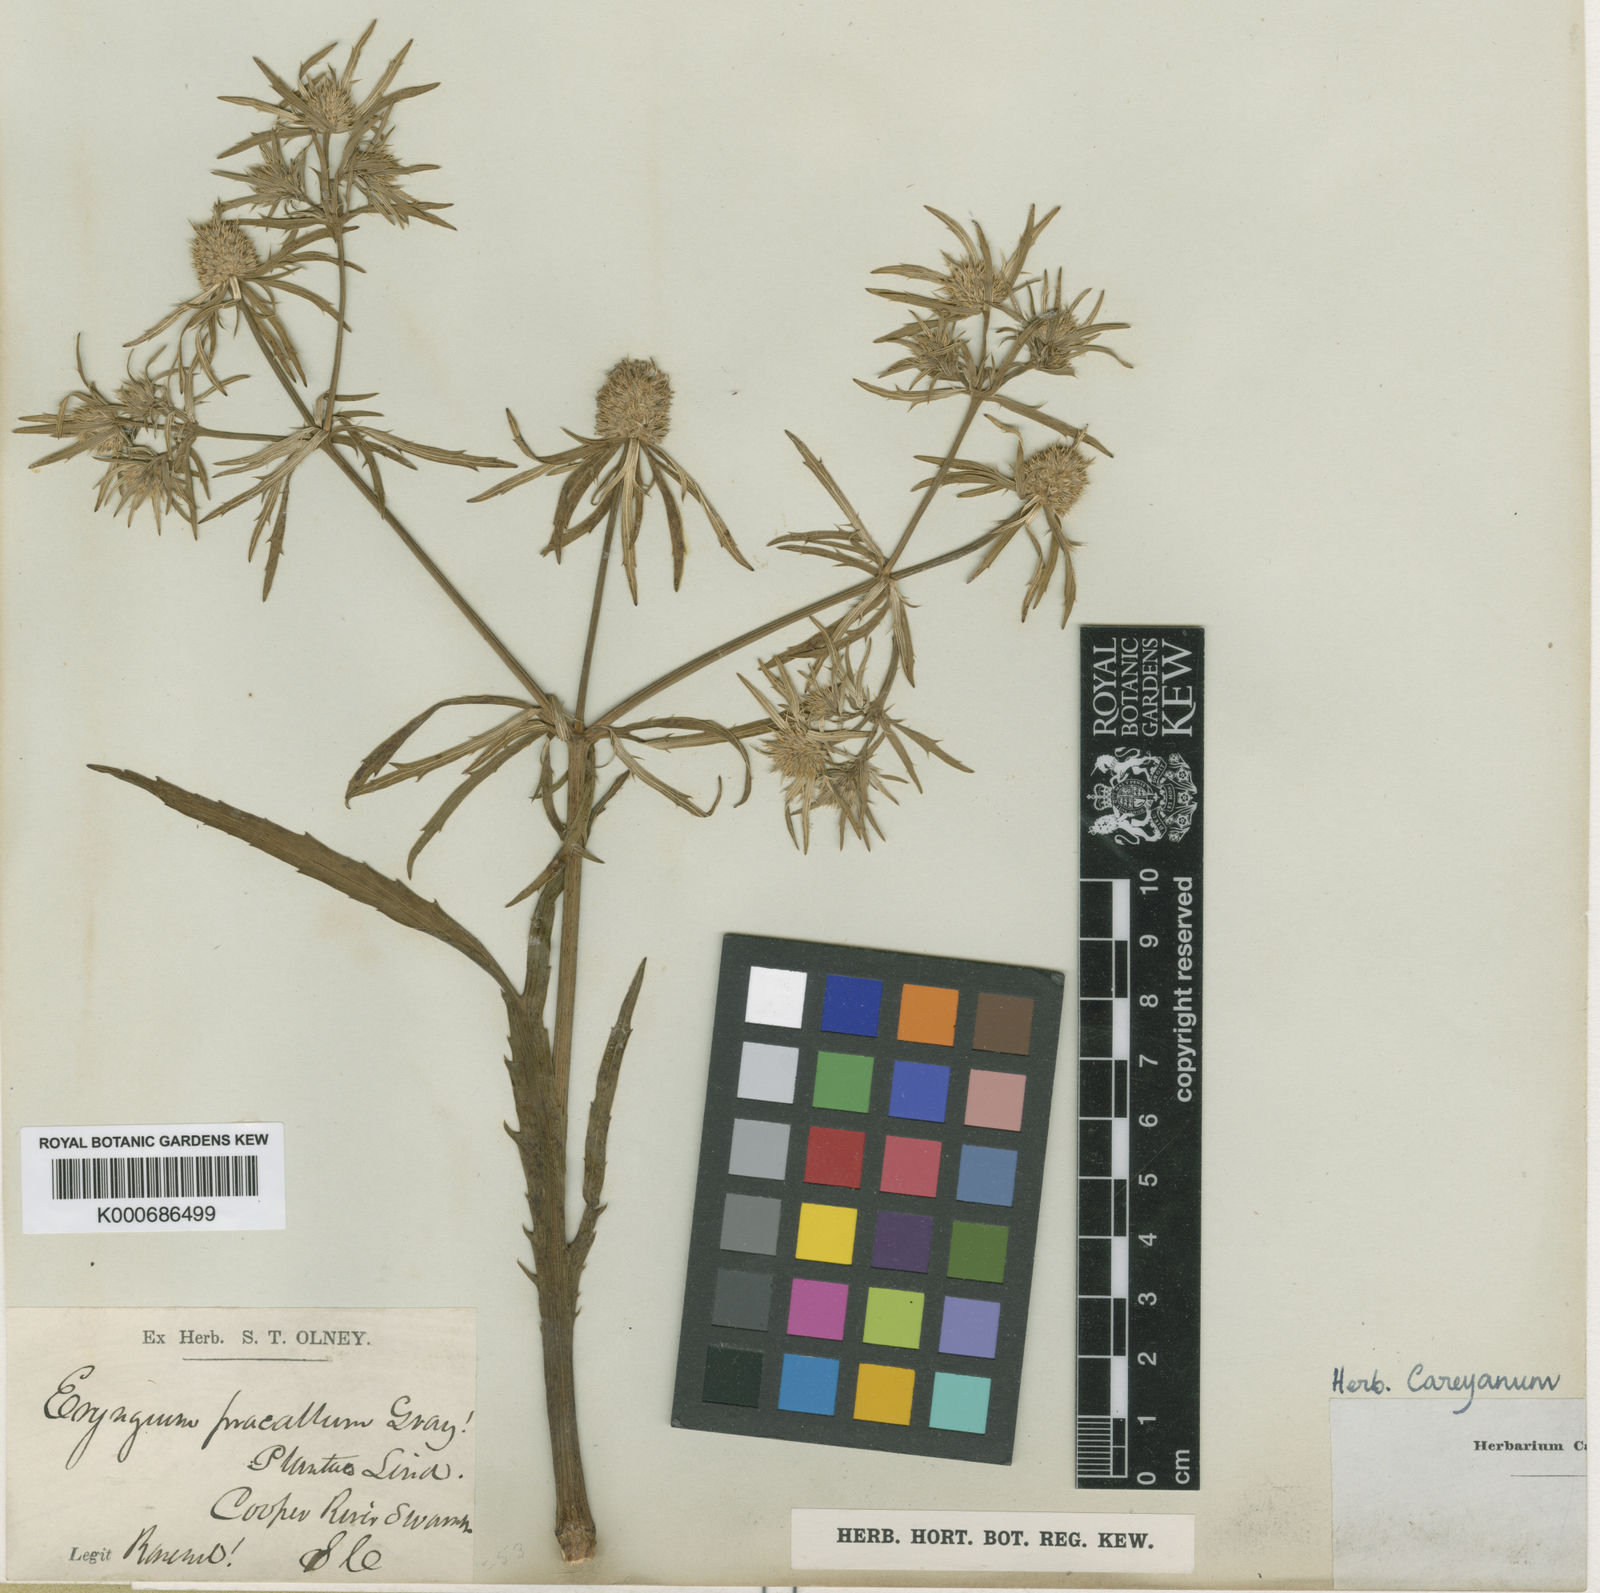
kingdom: Plantae
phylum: Tracheophyta
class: Magnoliopsida
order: Apiales
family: Apiaceae
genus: Eryngium
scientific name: Eryngium aquaticum
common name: Water eryngo
